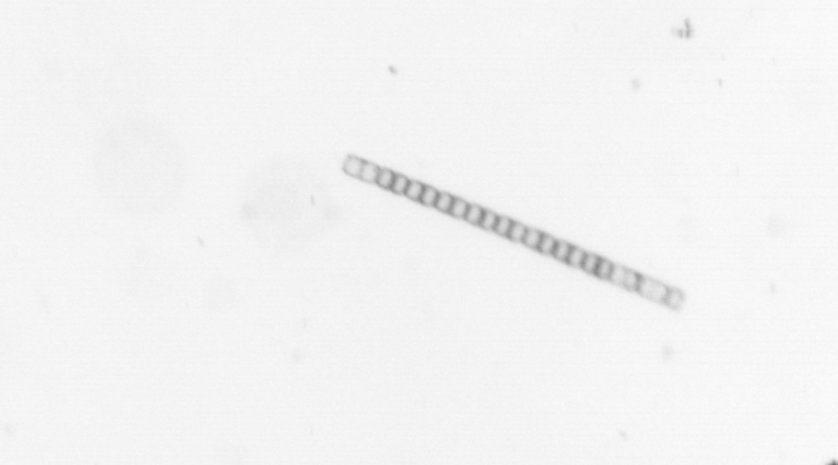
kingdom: Chromista
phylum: Ochrophyta
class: Bacillariophyceae
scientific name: Bacillariophyceae
